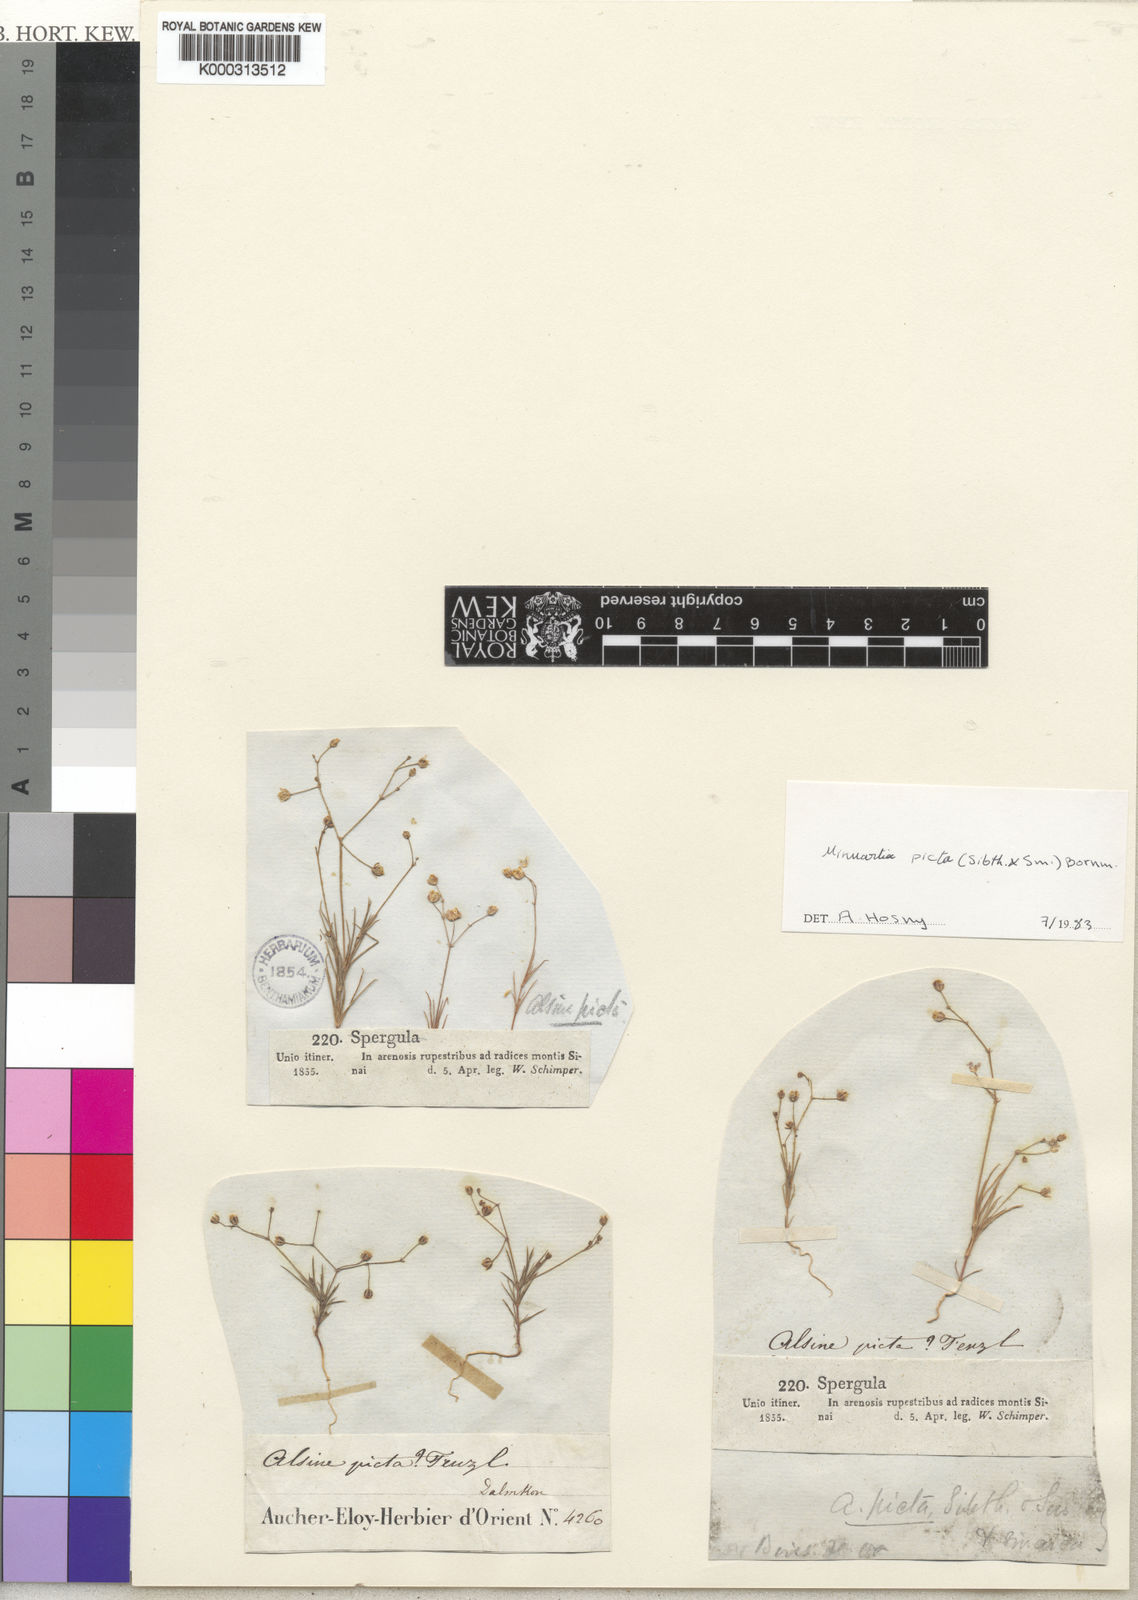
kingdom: Plantae
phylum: Tracheophyta
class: Magnoliopsida
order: Caryophyllales
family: Caryophyllaceae
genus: Eremogone
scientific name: Eremogone picta
